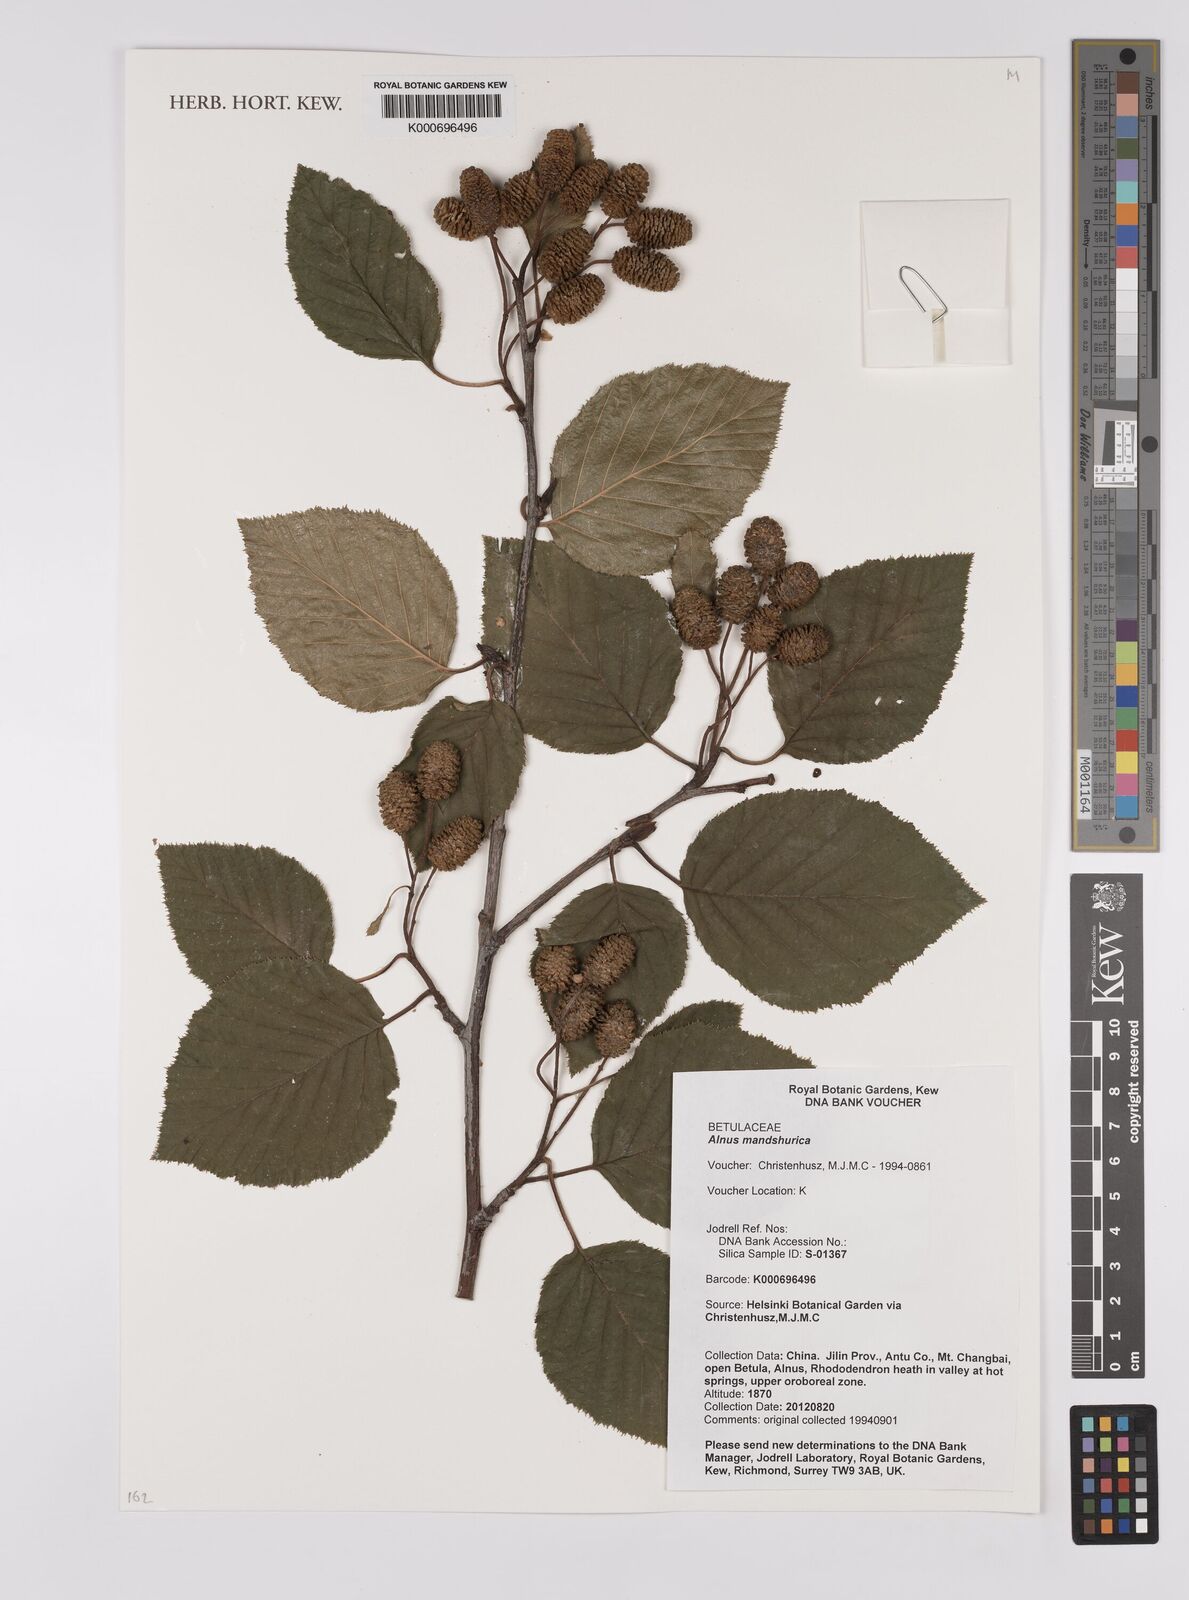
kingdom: Plantae
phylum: Tracheophyta
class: Magnoliopsida
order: Fagales
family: Betulaceae
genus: Alnus
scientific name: Alnus
